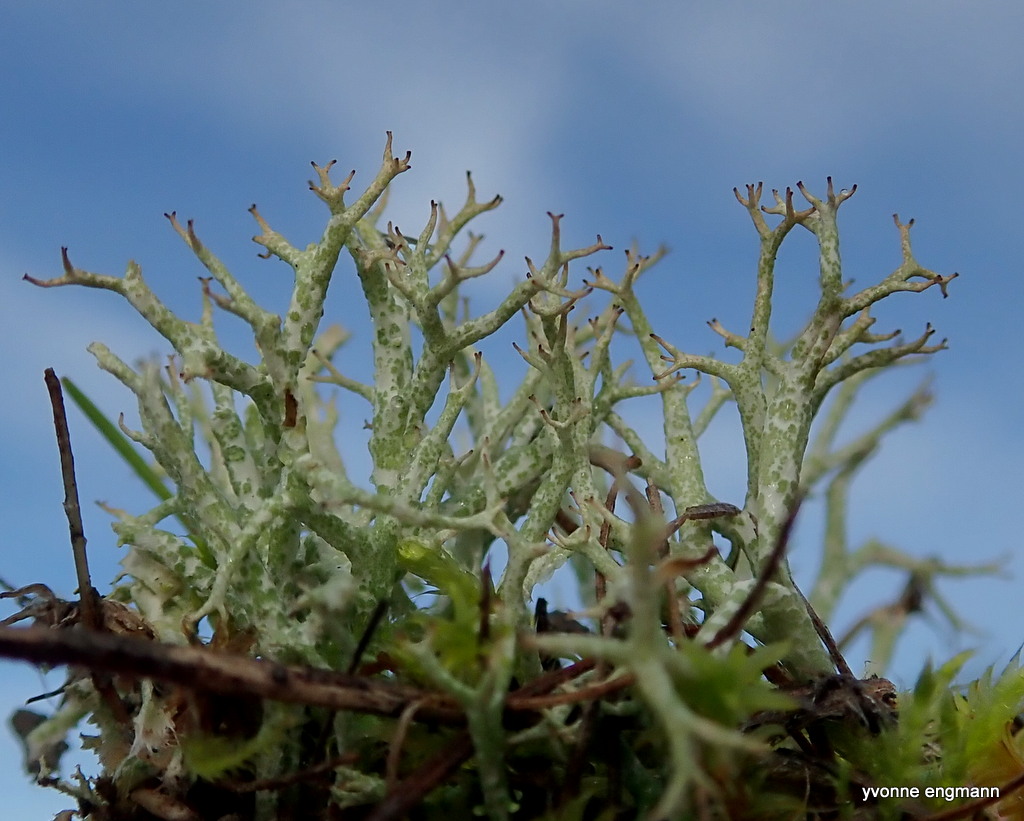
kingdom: Fungi
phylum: Ascomycota
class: Lecanoromycetes
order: Lecanorales
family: Cladoniaceae
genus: Cladonia
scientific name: Cladonia rangiformis
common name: spættet bægerlav
